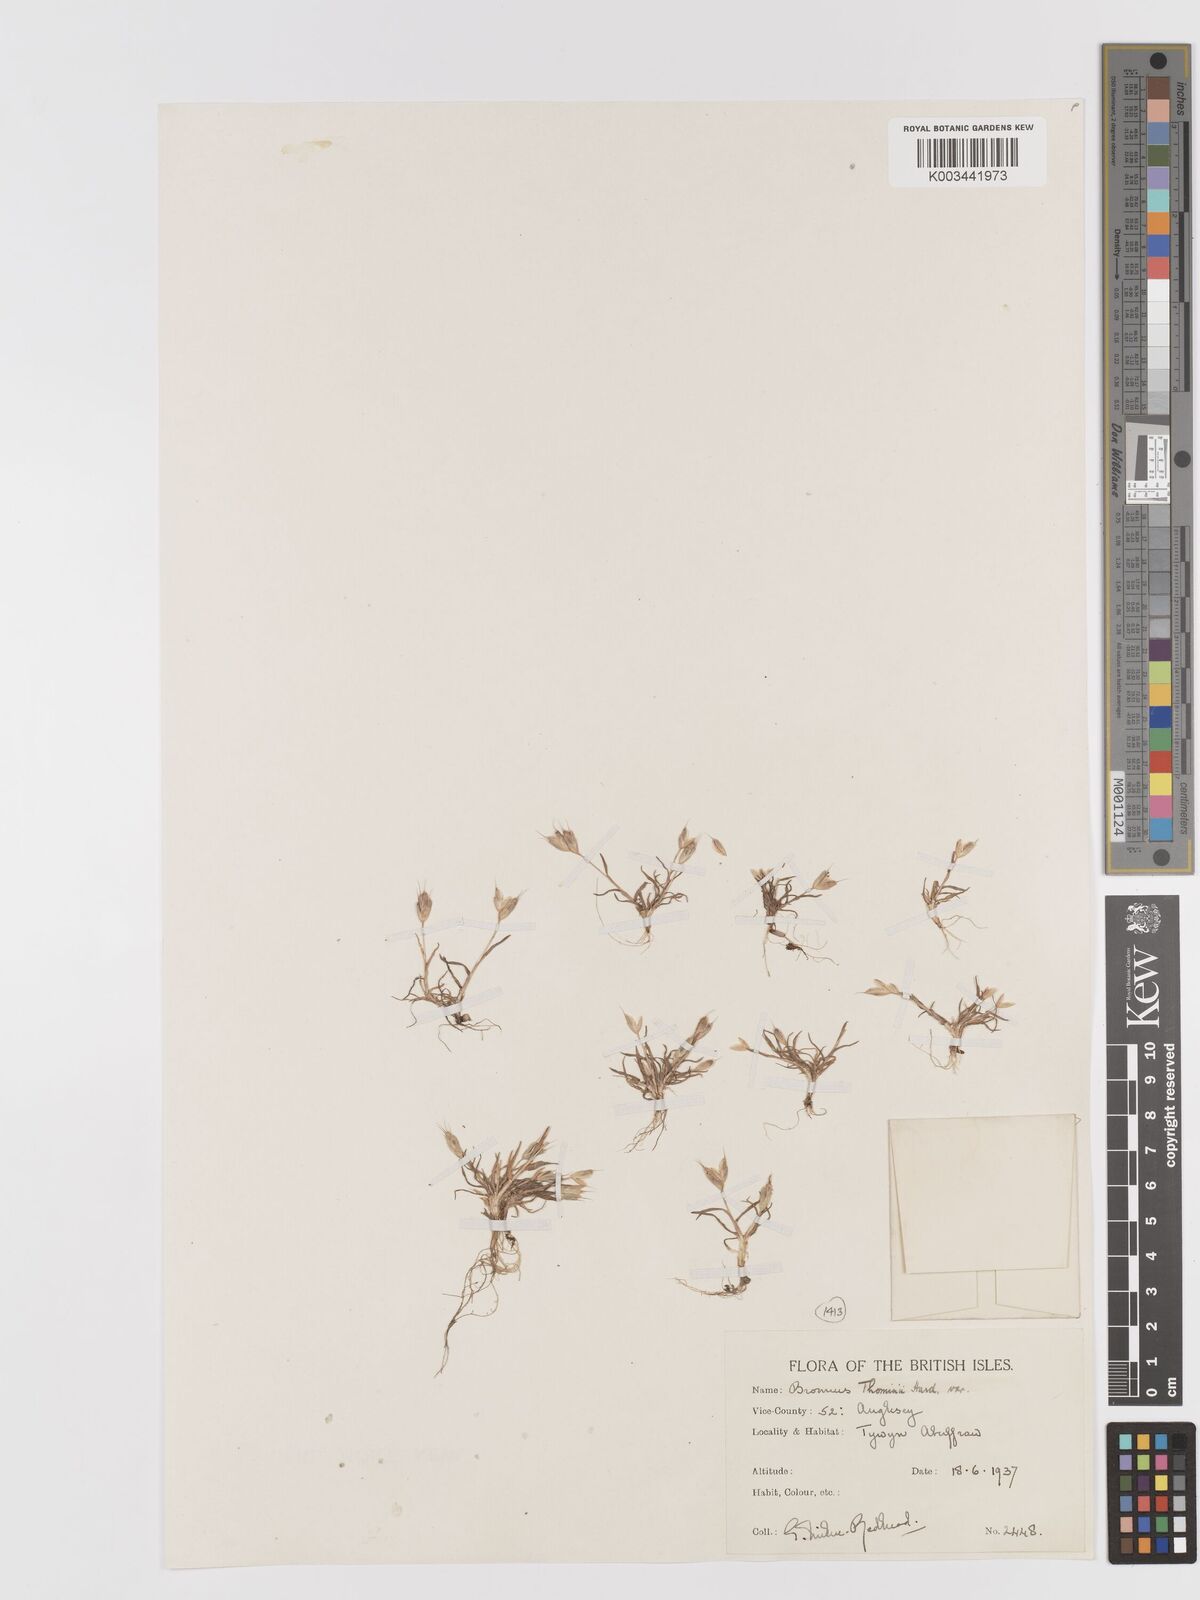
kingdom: Plantae
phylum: Tracheophyta
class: Liliopsida
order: Poales
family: Poaceae
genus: Bromus
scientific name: Bromus hordeaceus
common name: Soft brome
